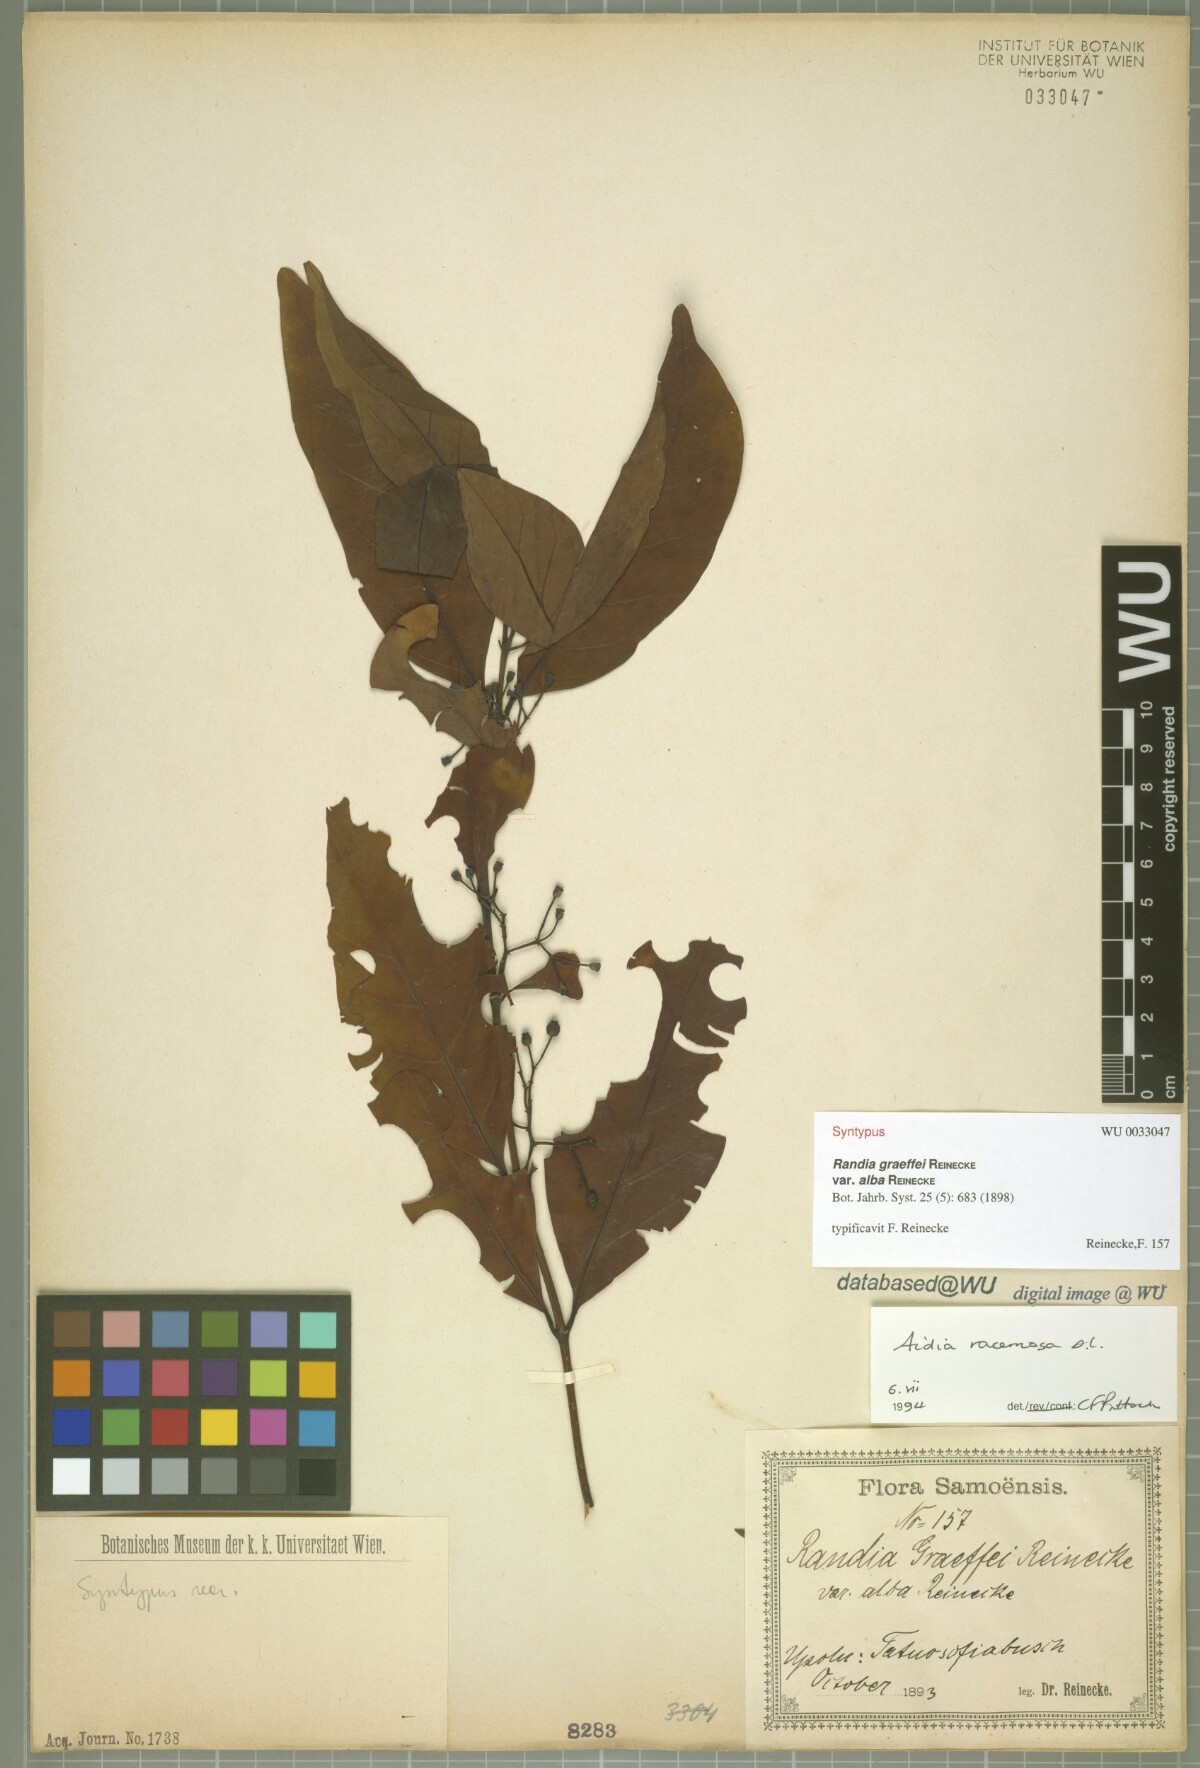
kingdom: Plantae
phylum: Tracheophyta
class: Magnoliopsida
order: Gentianales
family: Rubiaceae
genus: Aidia
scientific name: Aidia racemosa
